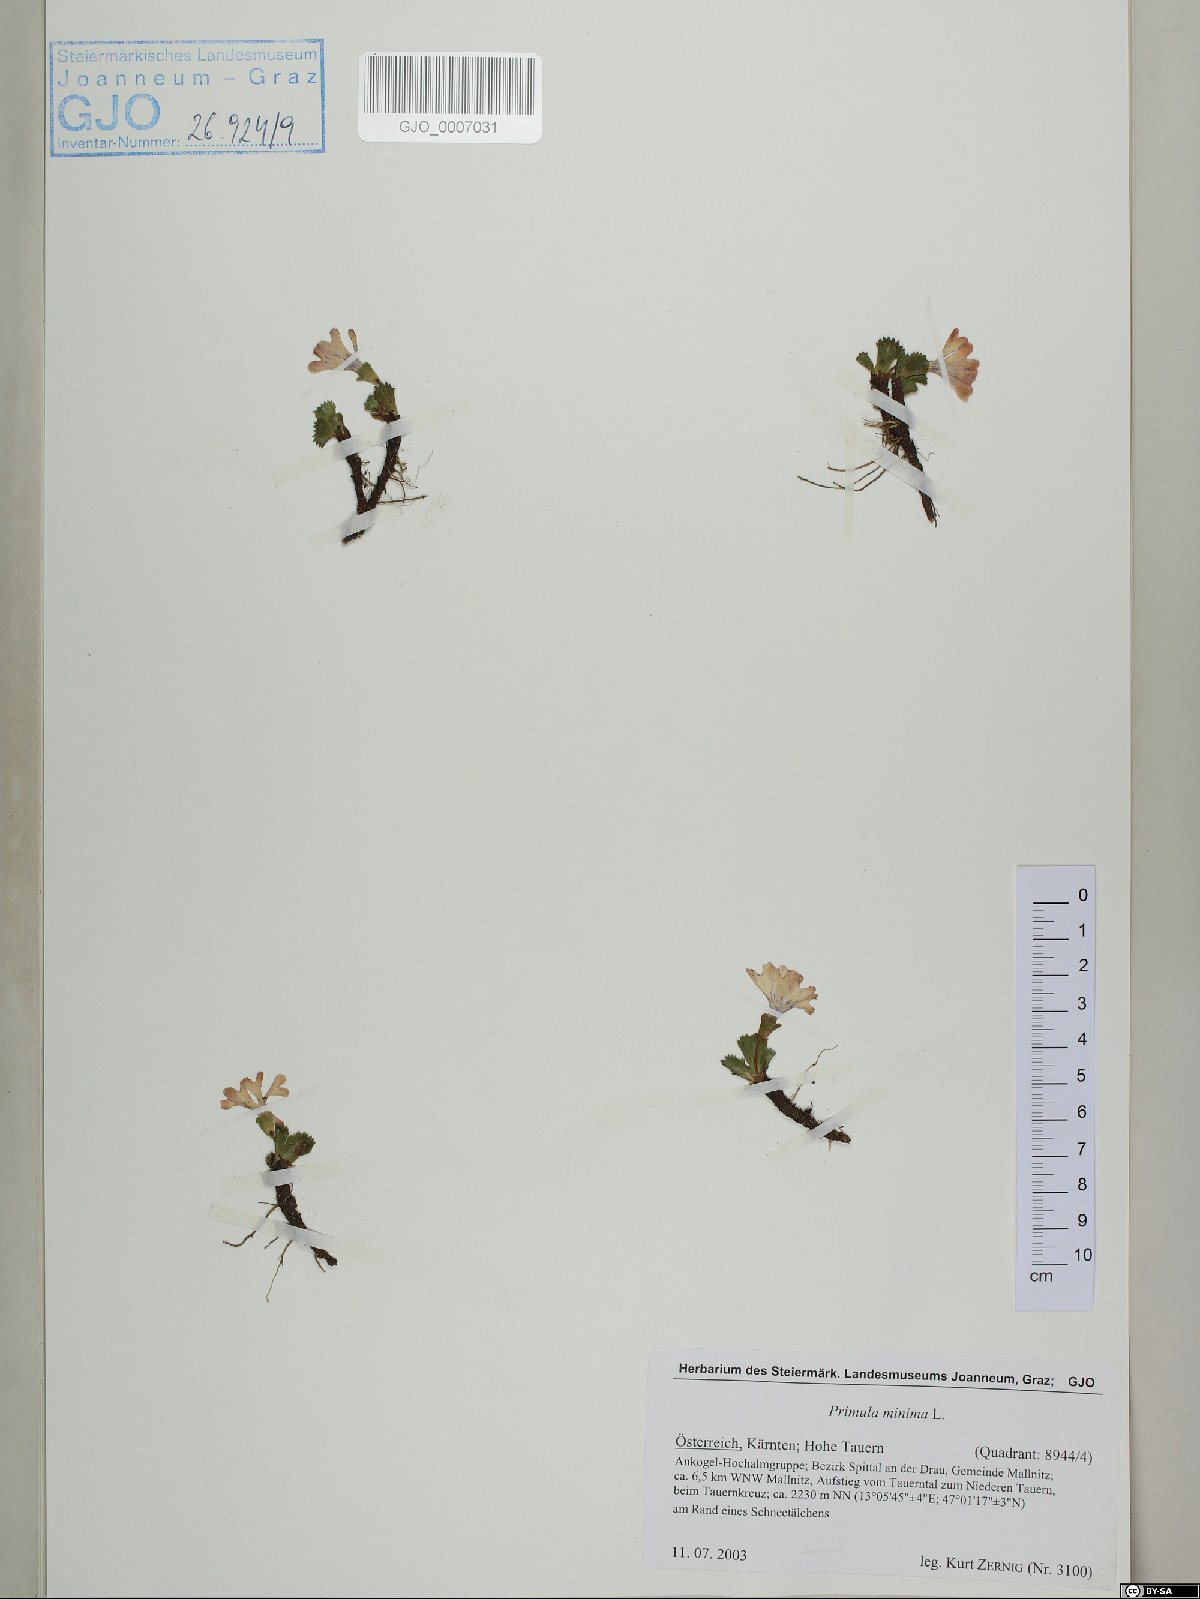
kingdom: Plantae
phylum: Tracheophyta
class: Magnoliopsida
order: Ericales
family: Primulaceae
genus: Primula
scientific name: Primula minima
